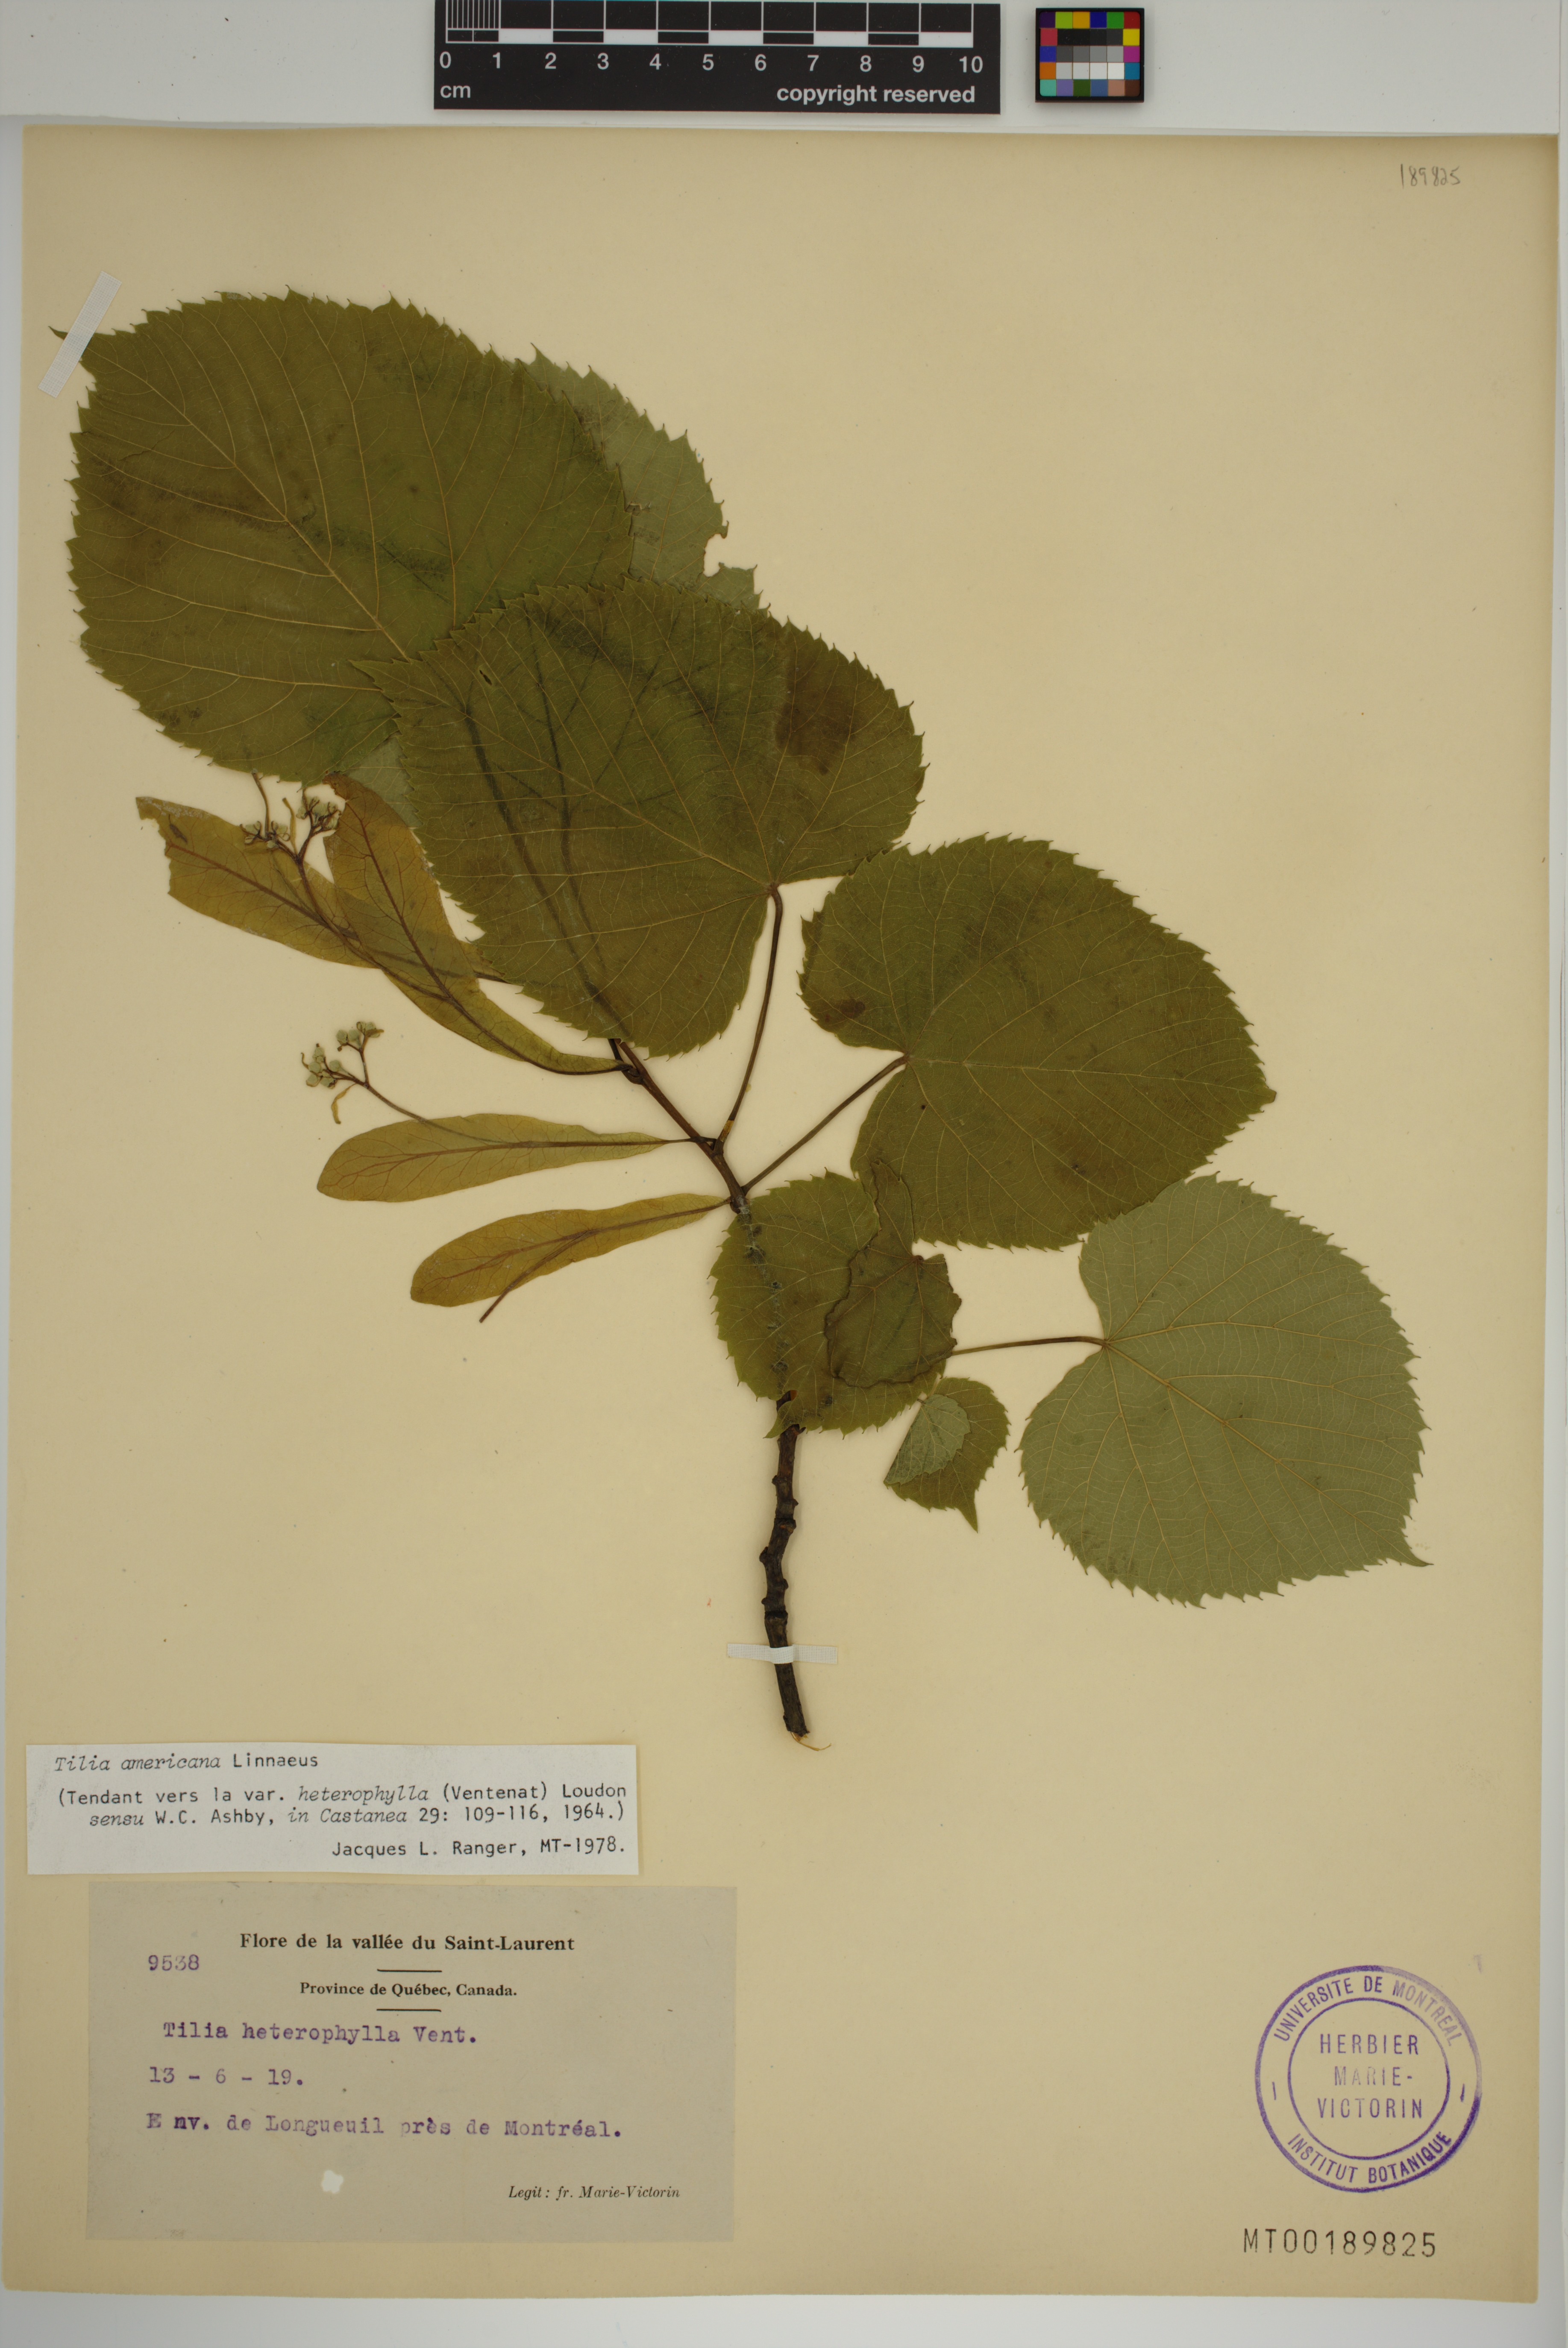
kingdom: Plantae
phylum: Tracheophyta
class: Magnoliopsida
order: Malvales
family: Malvaceae
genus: Tilia
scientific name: Tilia americana
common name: Basswood
